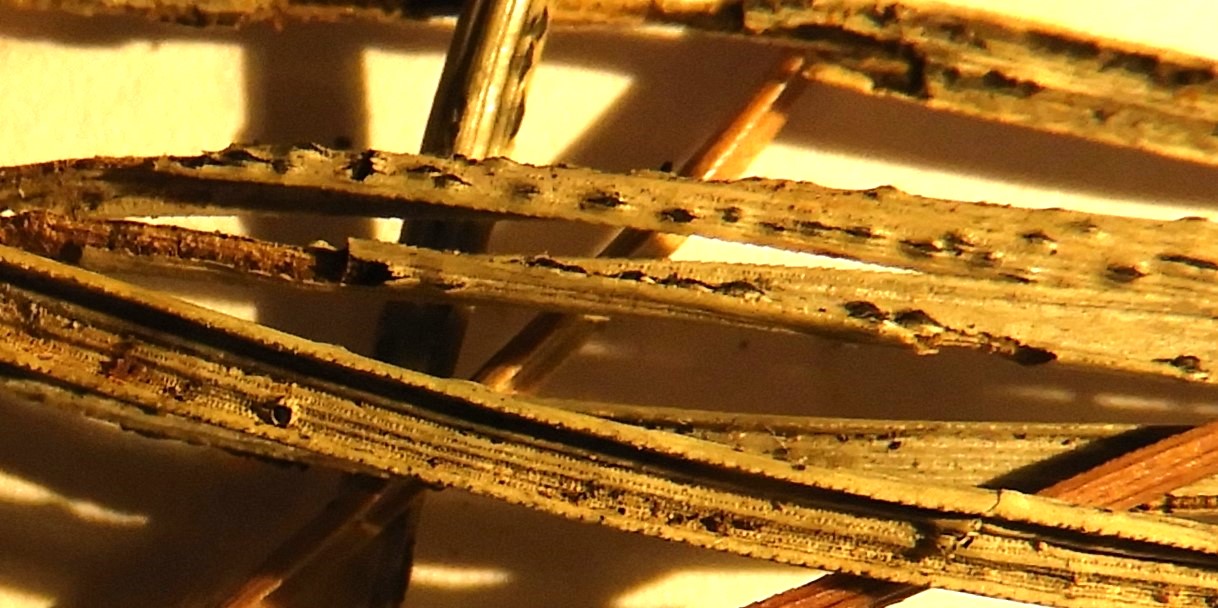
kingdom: Fungi
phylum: Ascomycota
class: Dothideomycetes
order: Botryosphaeriales
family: Botryosphaeriaceae
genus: Sphaeropsis
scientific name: Sphaeropsis sapinea
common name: Sphaeropsis blight
